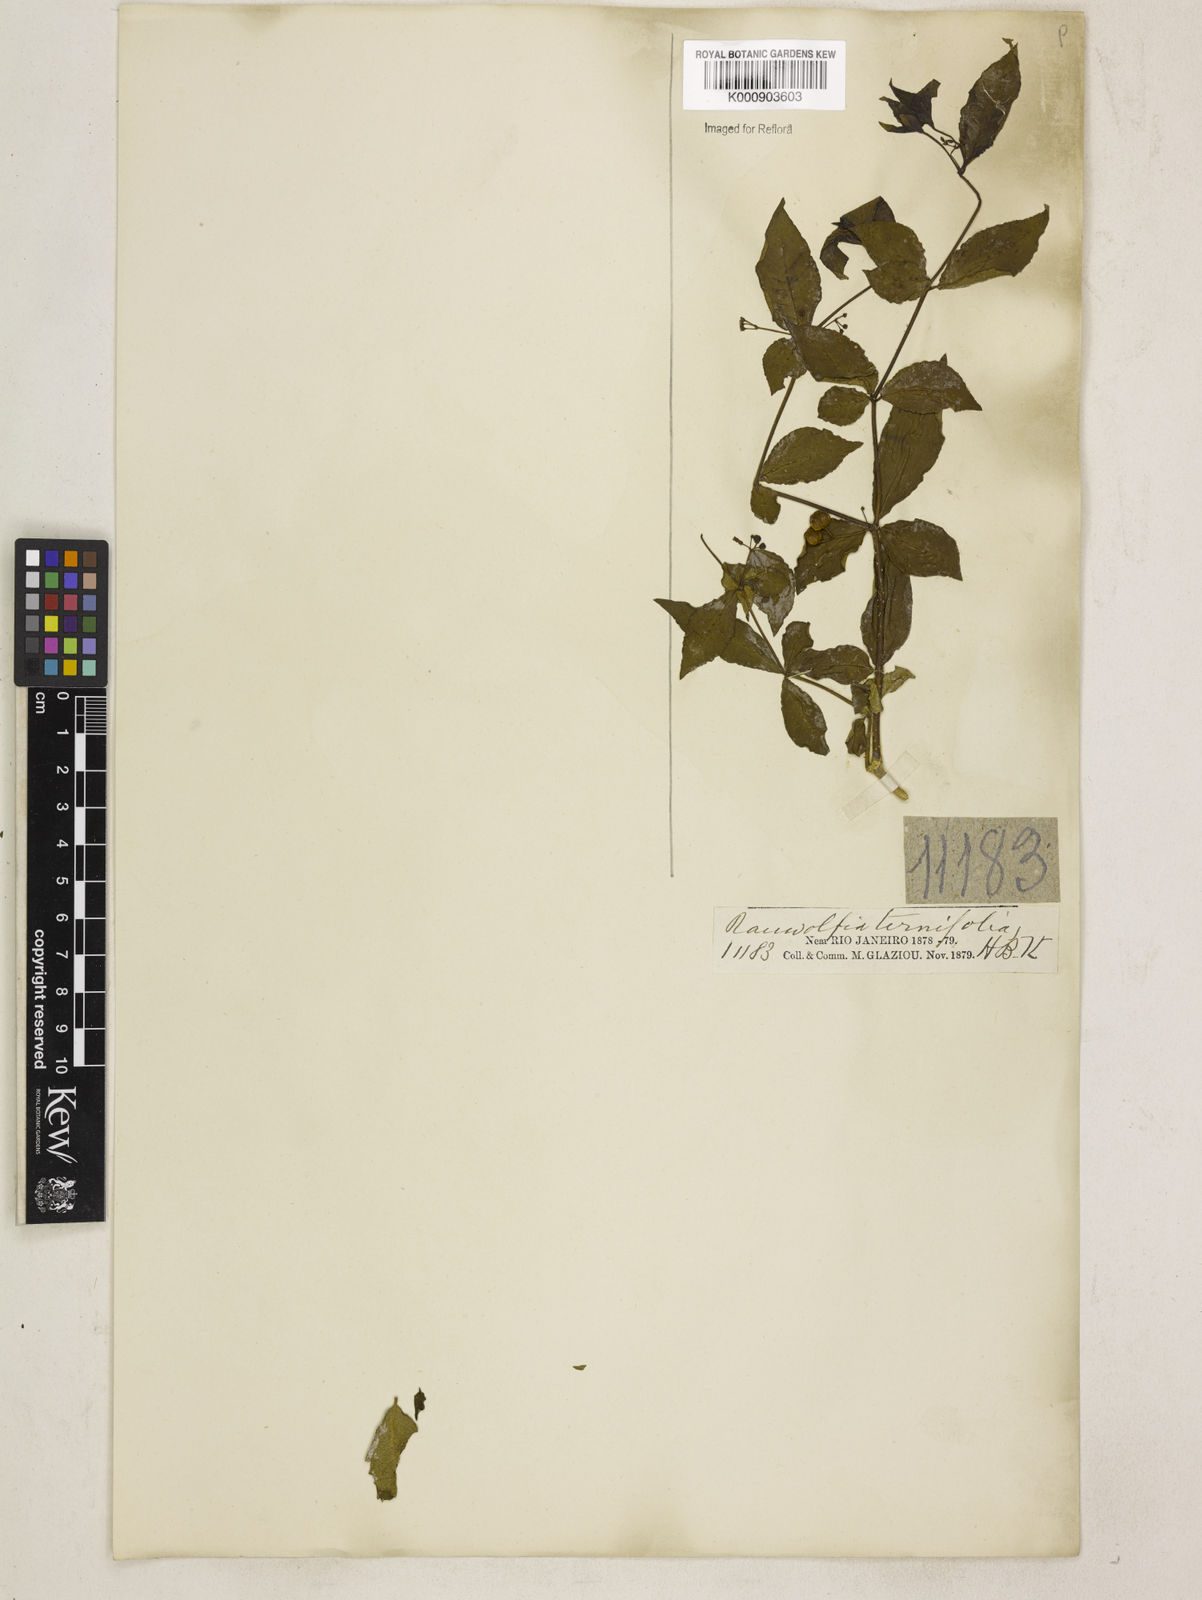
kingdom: Plantae
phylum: Tracheophyta
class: Magnoliopsida
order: Gentianales
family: Apocynaceae
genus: Rauvolfia
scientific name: Rauvolfia
